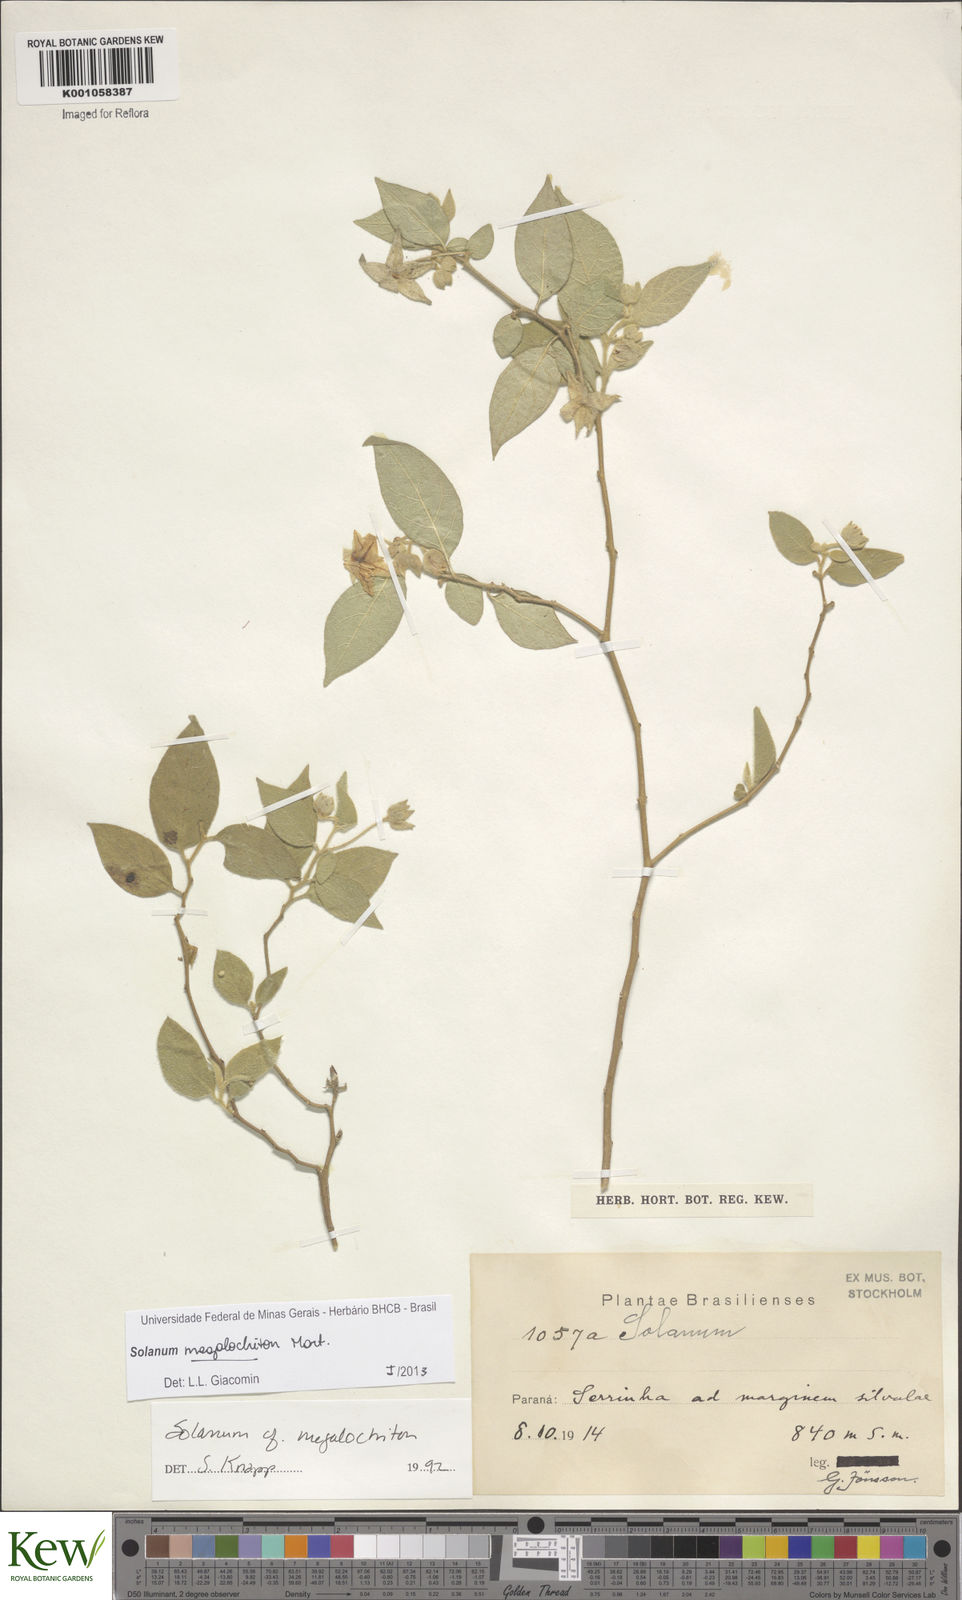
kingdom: Plantae
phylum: Tracheophyta
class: Magnoliopsida
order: Solanales
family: Solanaceae
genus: Solanum
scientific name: Solanum didymum
